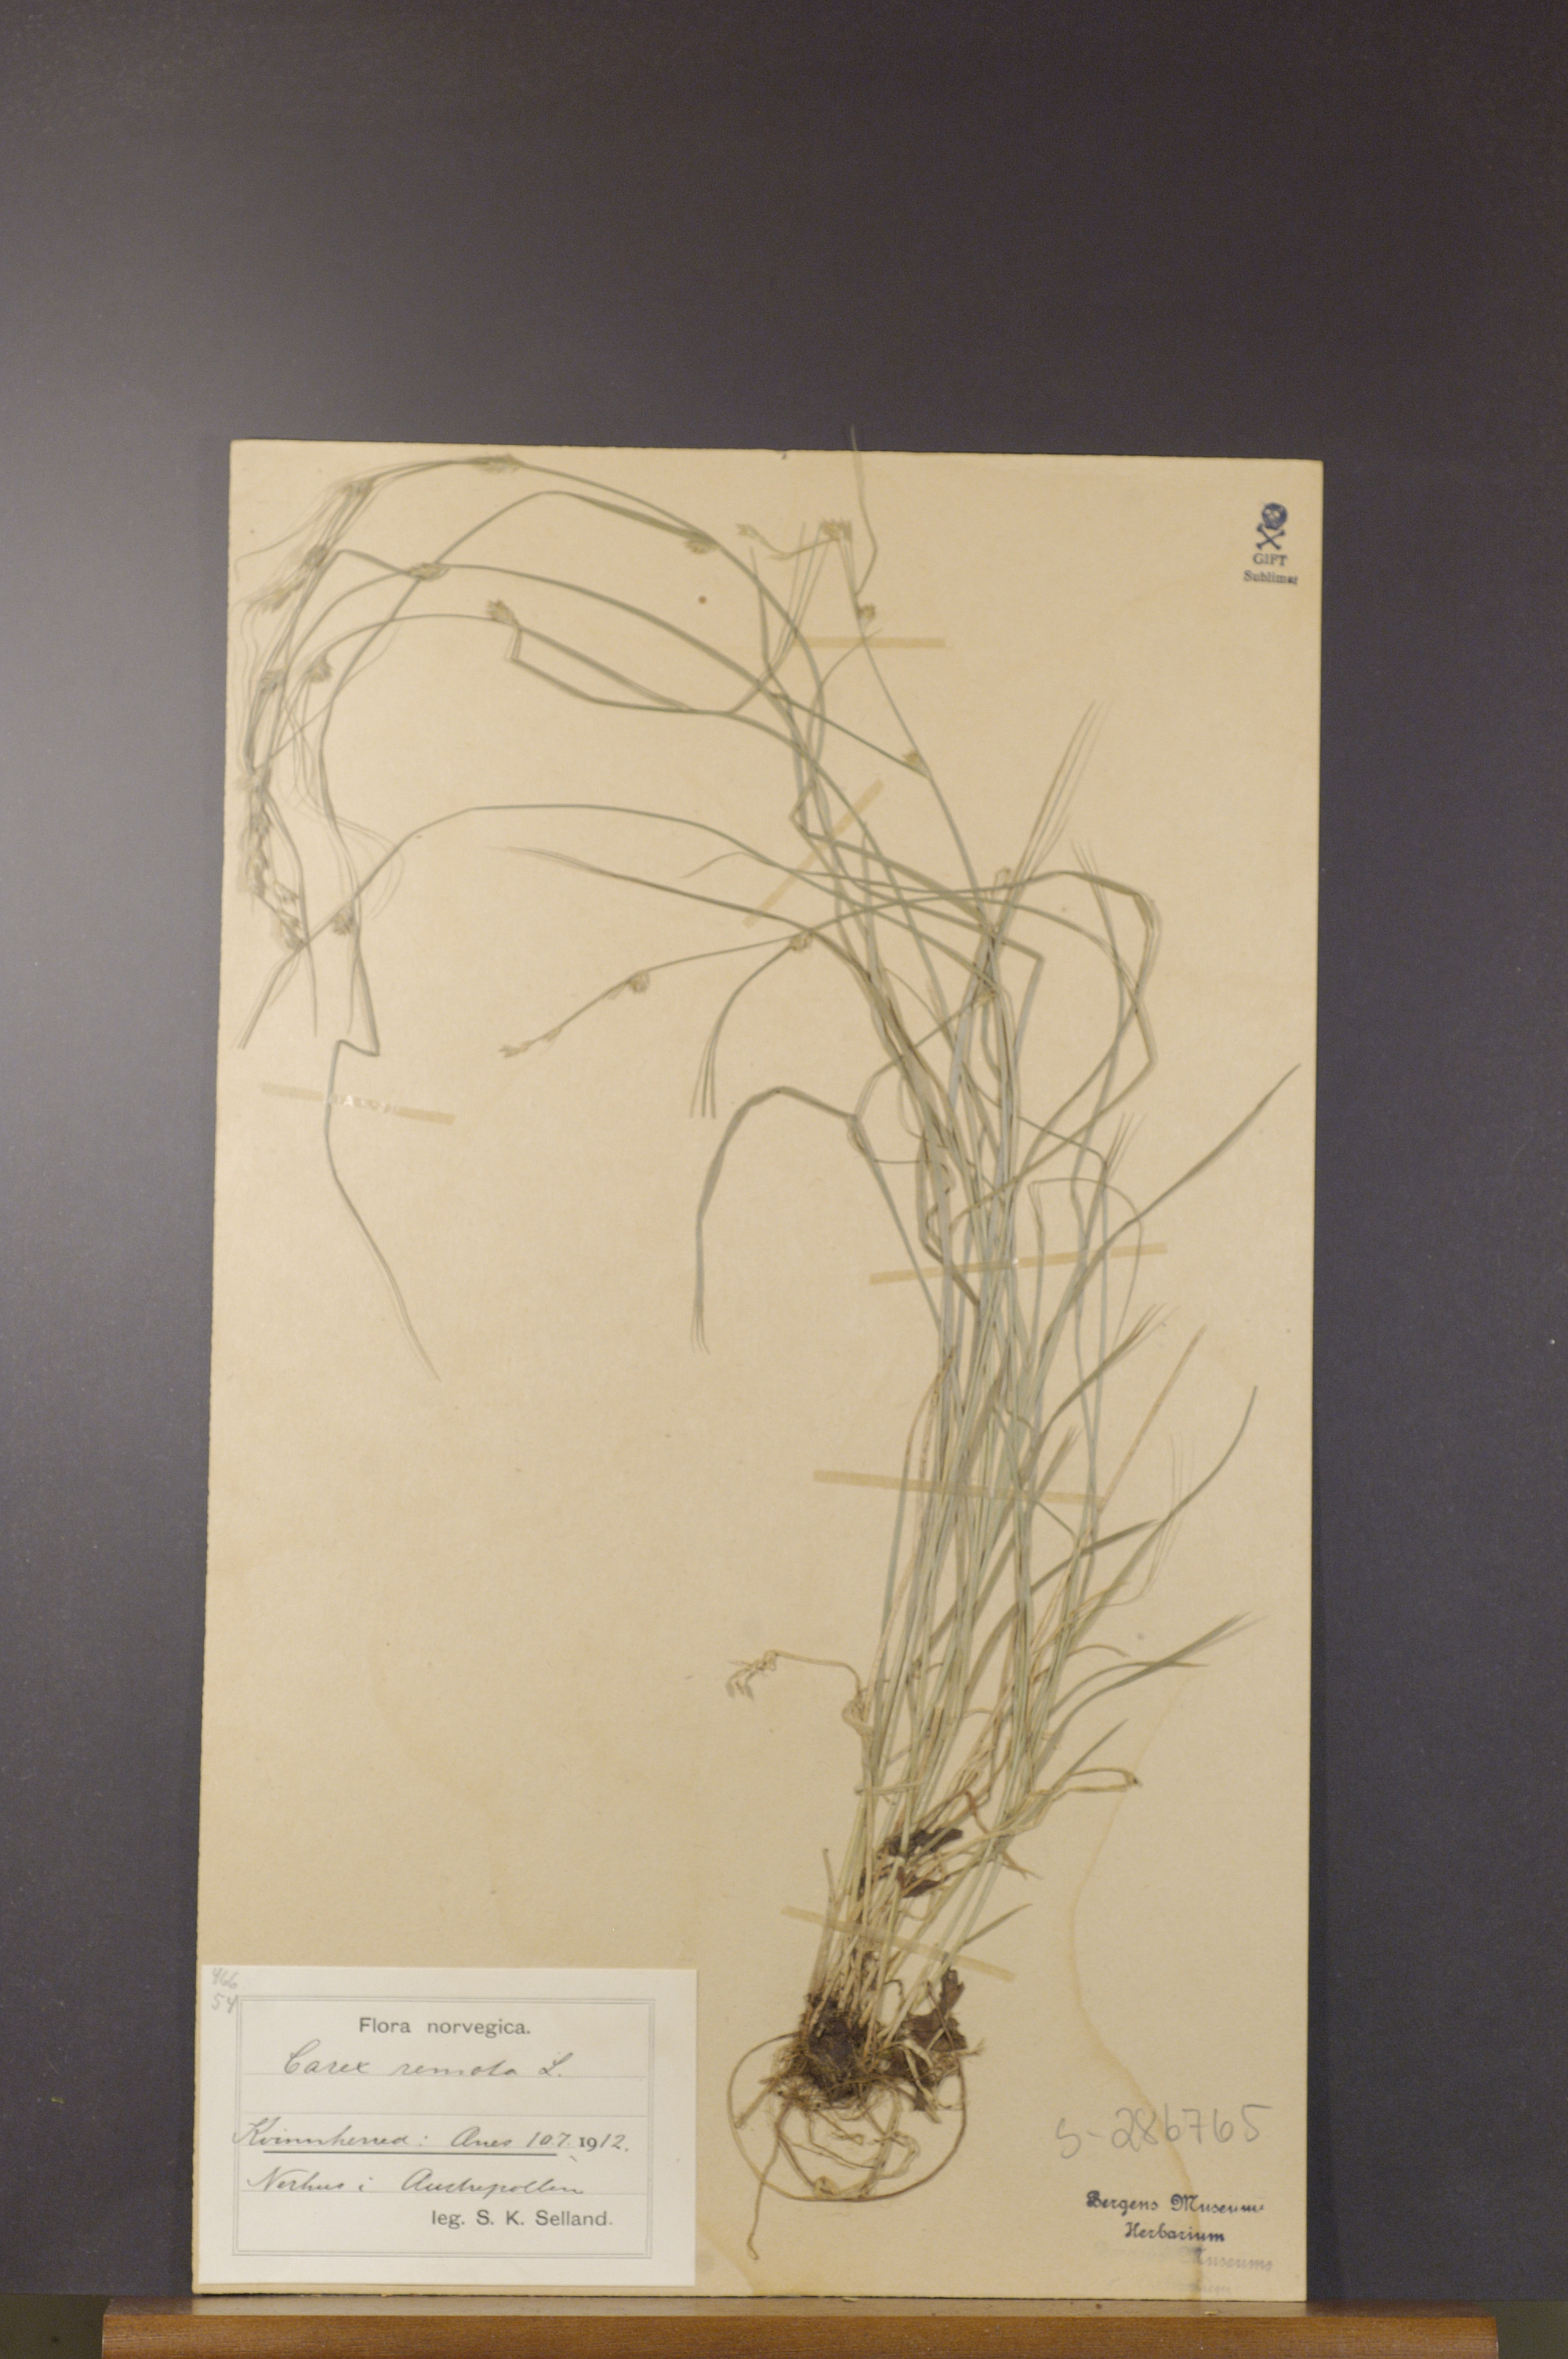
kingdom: Plantae
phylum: Tracheophyta
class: Liliopsida
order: Poales
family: Cyperaceae
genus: Carex
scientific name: Carex remota
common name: Remote sedge
